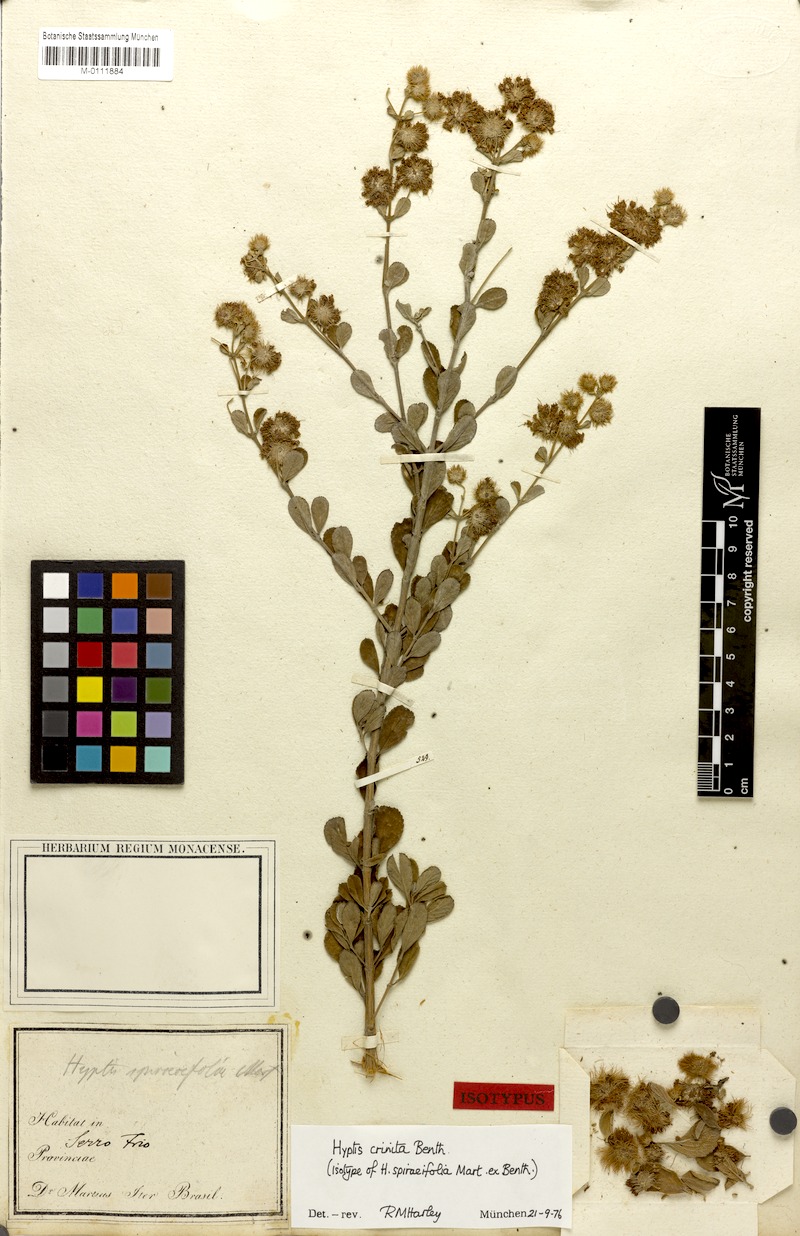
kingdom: Plantae
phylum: Tracheophyta
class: Magnoliopsida
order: Lamiales
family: Lamiaceae
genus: Medusantha
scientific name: Medusantha crinita
